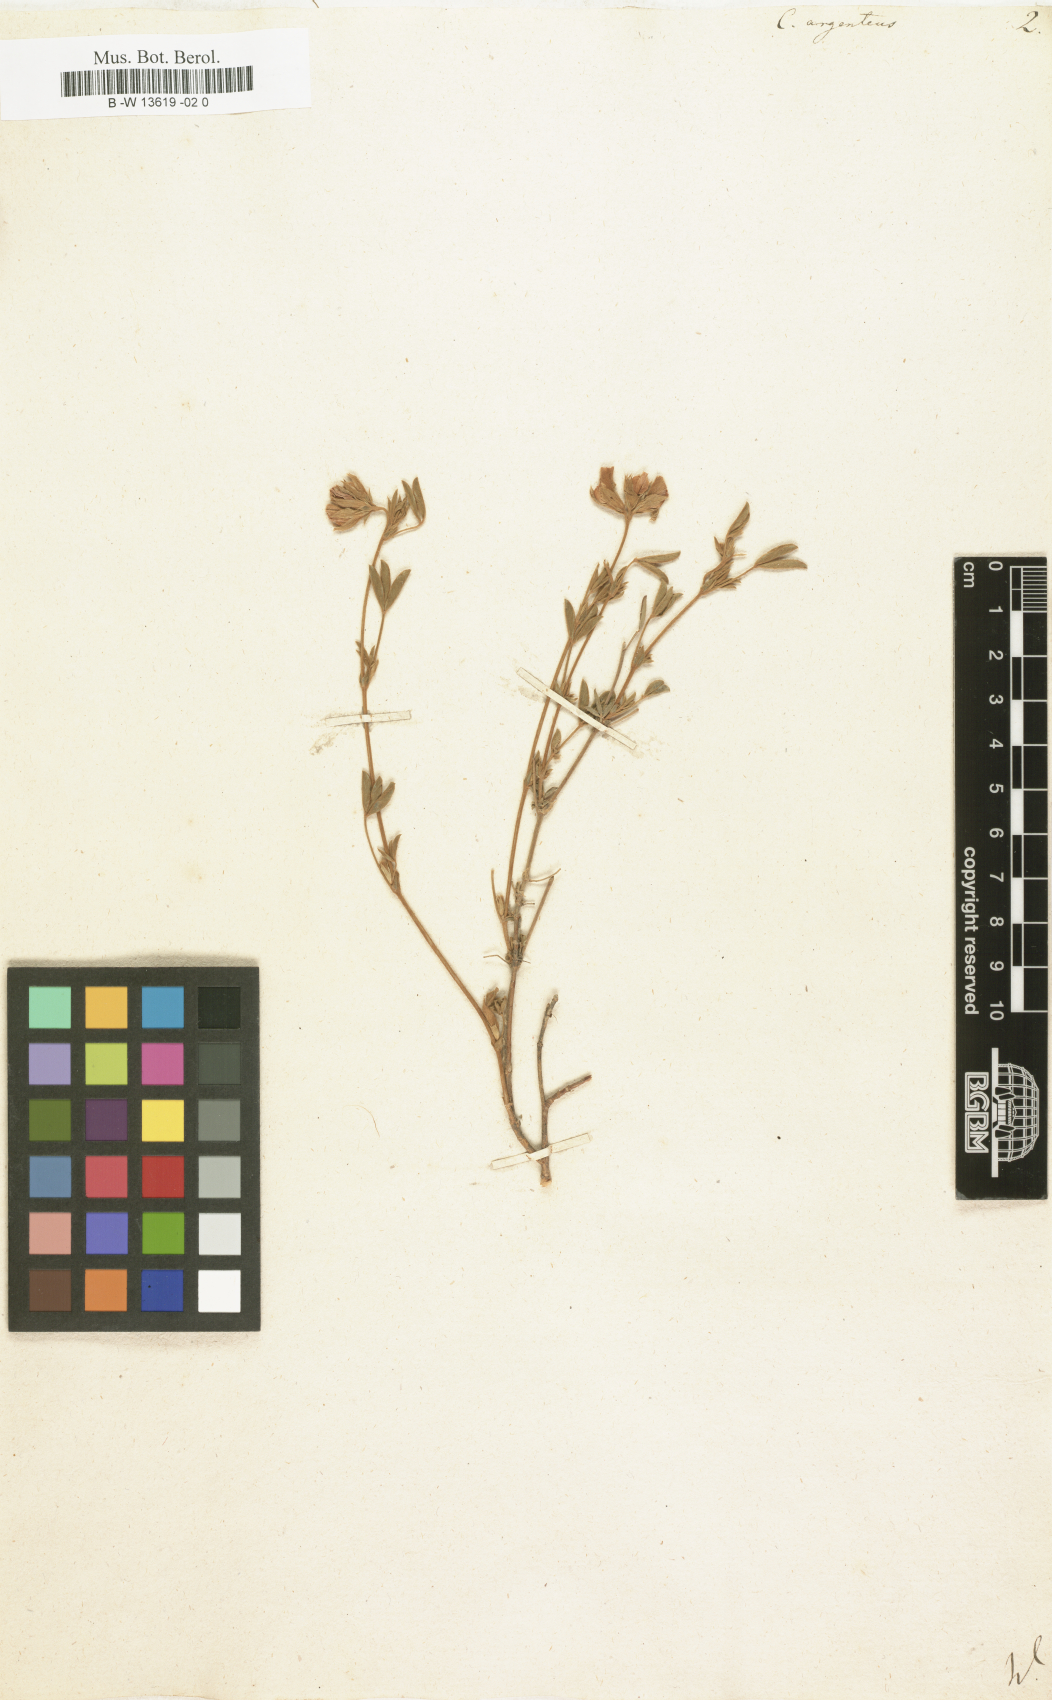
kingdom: Plantae
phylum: Tracheophyta
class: Magnoliopsida
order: Fabales
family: Fabaceae
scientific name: Fabaceae
